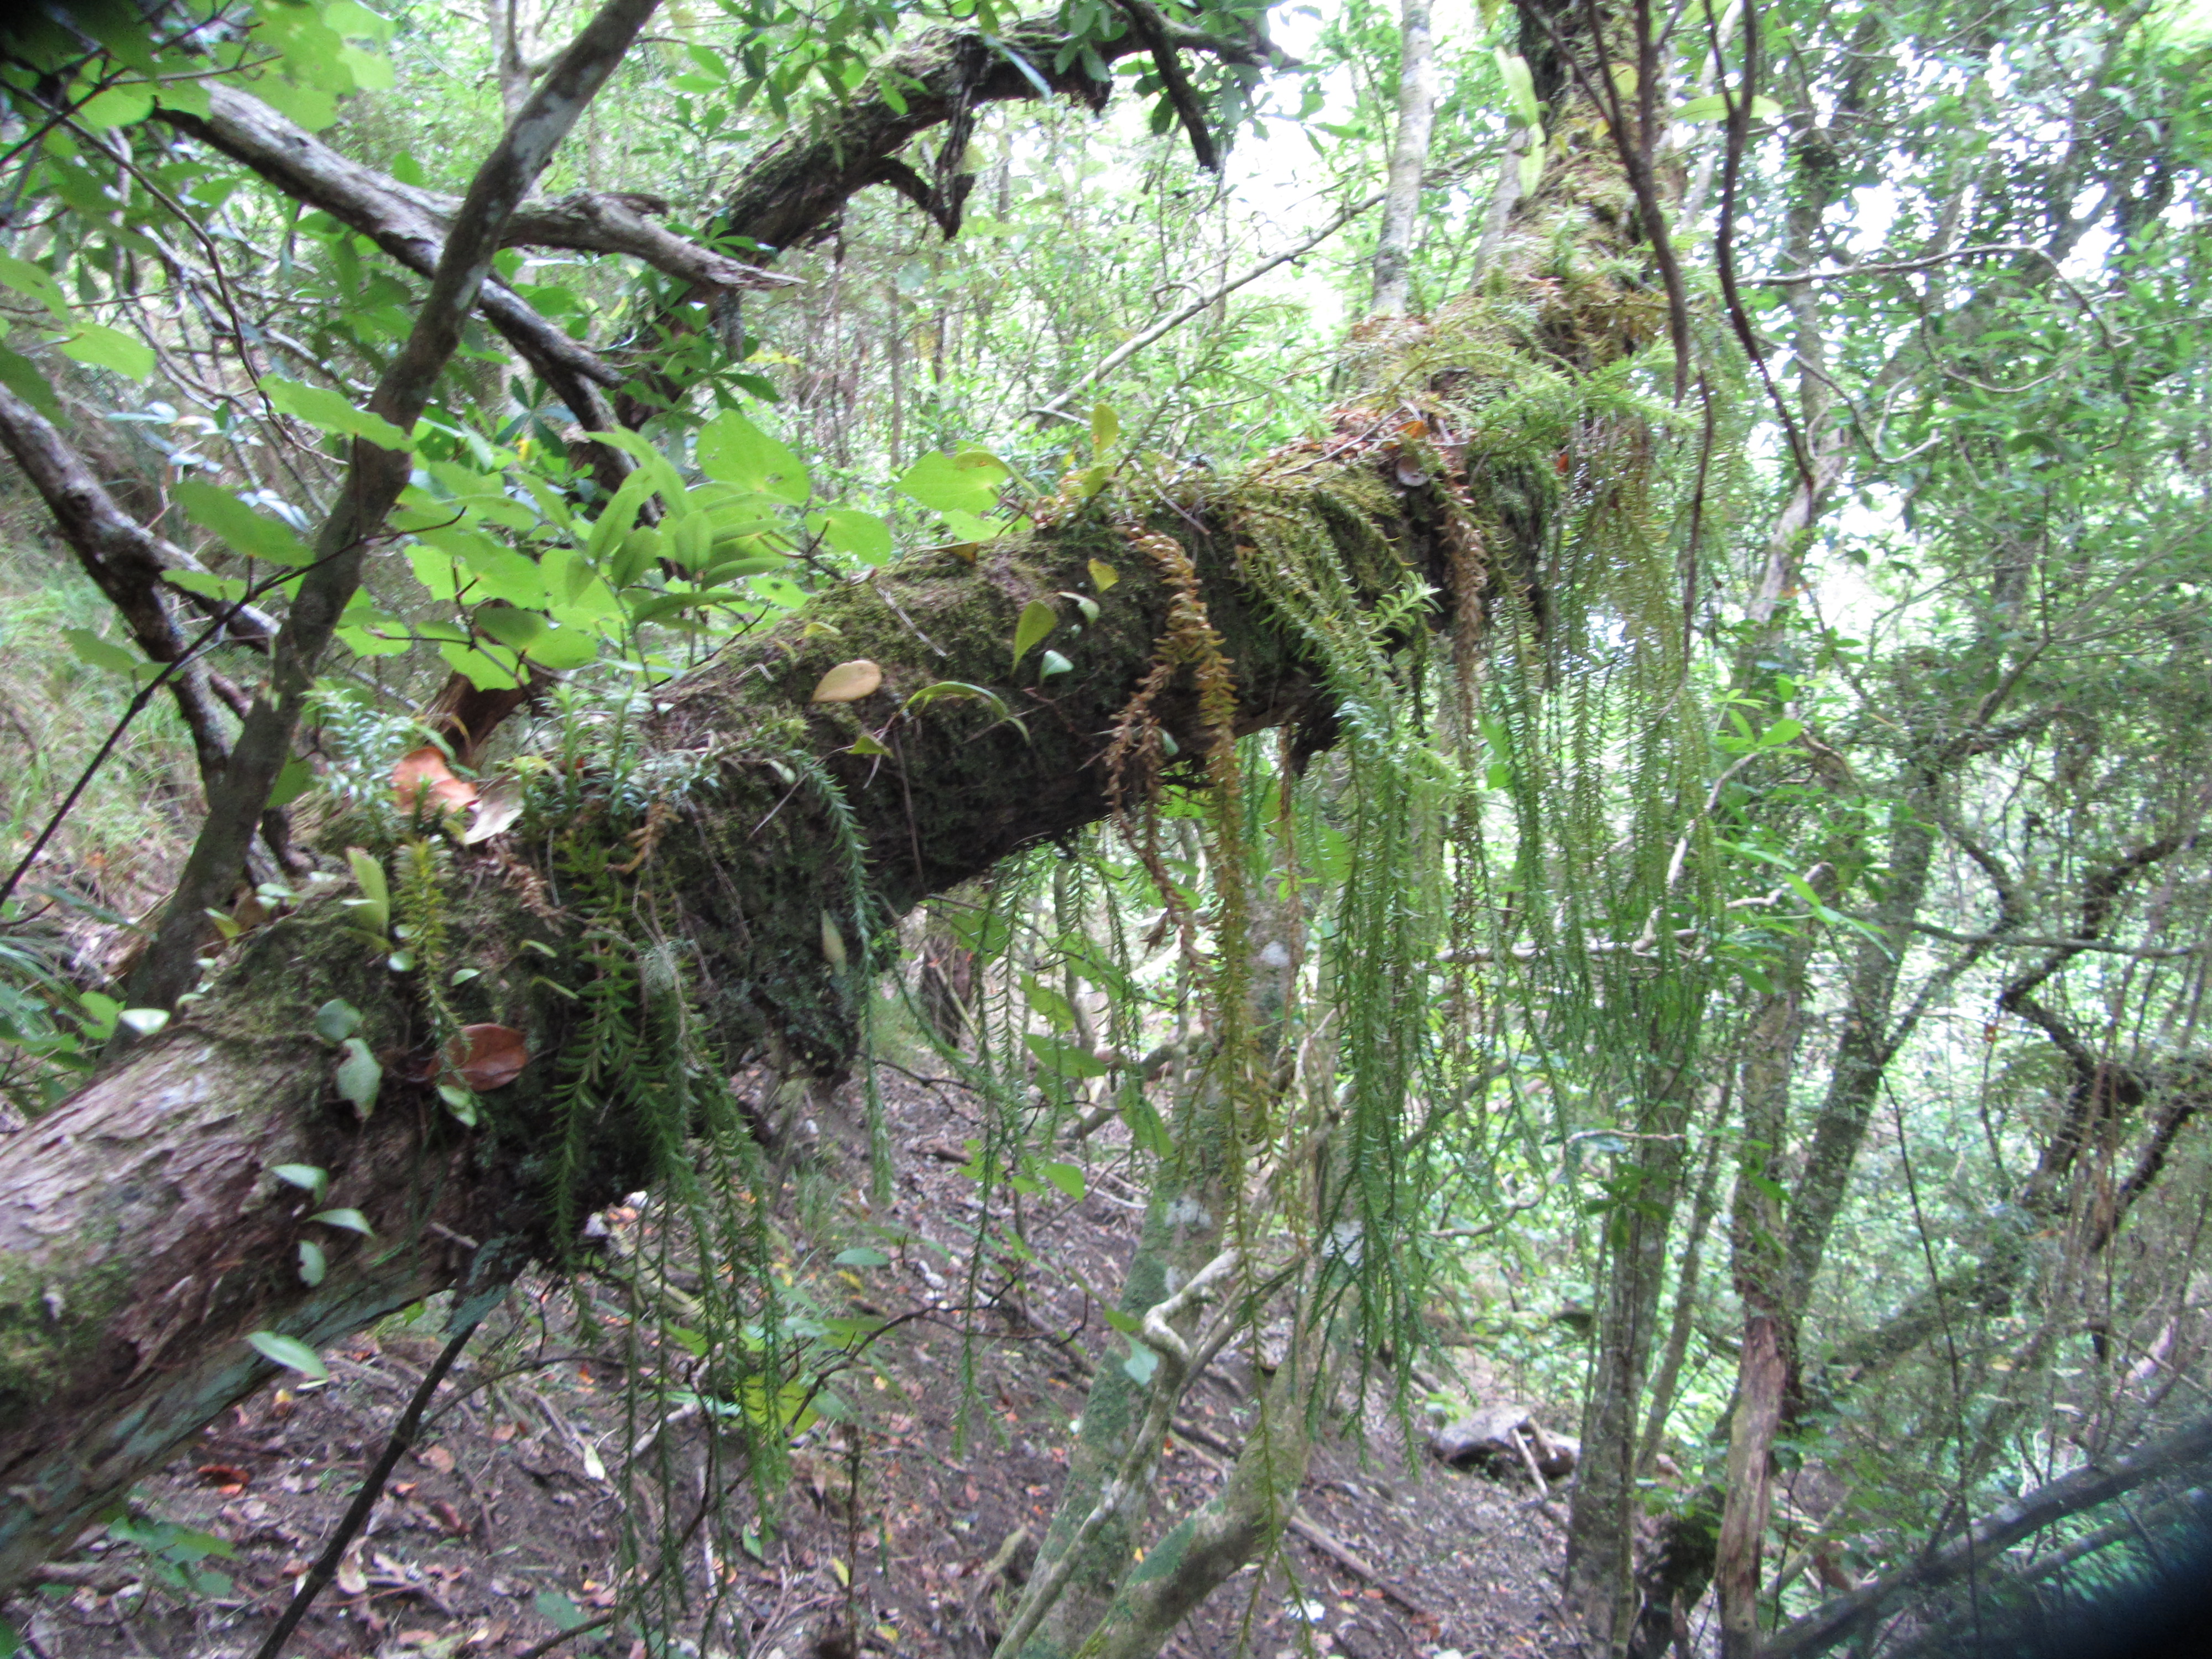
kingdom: Plantae
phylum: Bryophyta
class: Bryopsida
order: Hypnales
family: Trachylomataceae
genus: Trachyloma
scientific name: Trachyloma
